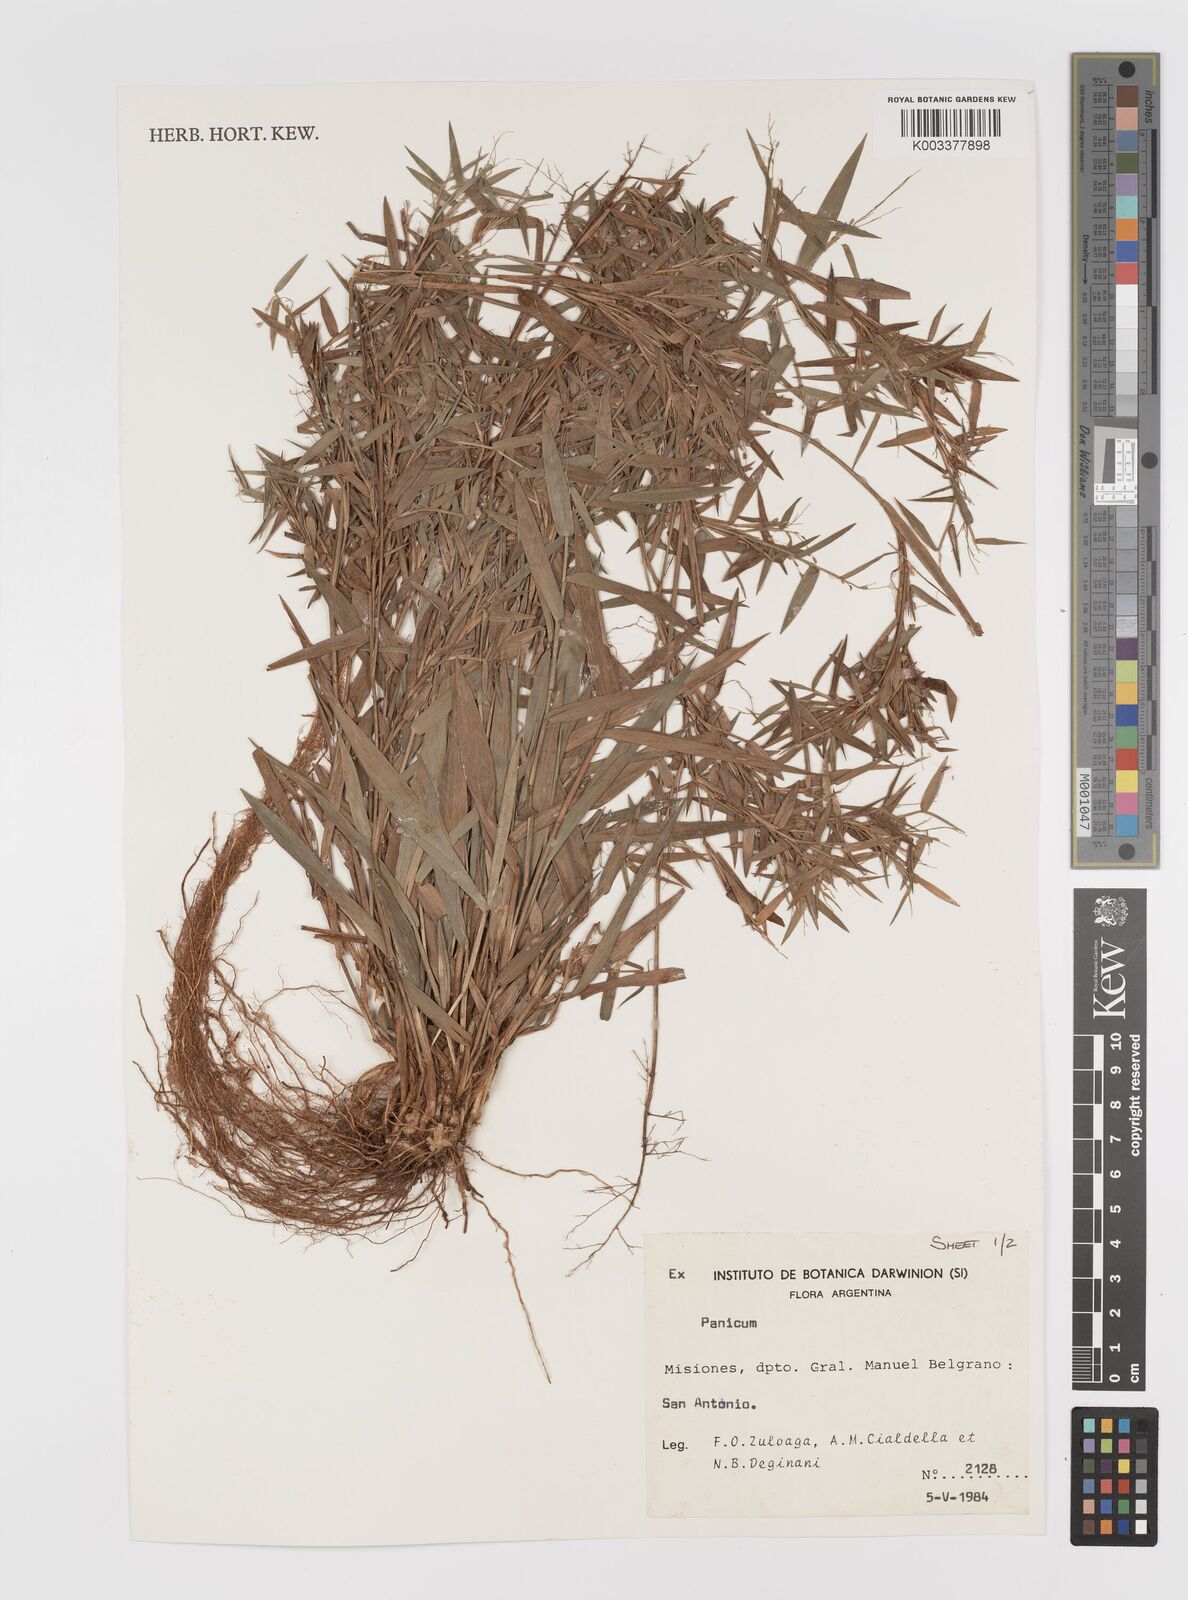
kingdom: Plantae
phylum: Tracheophyta
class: Liliopsida
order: Poales
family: Poaceae
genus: Panicum
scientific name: Panicum
